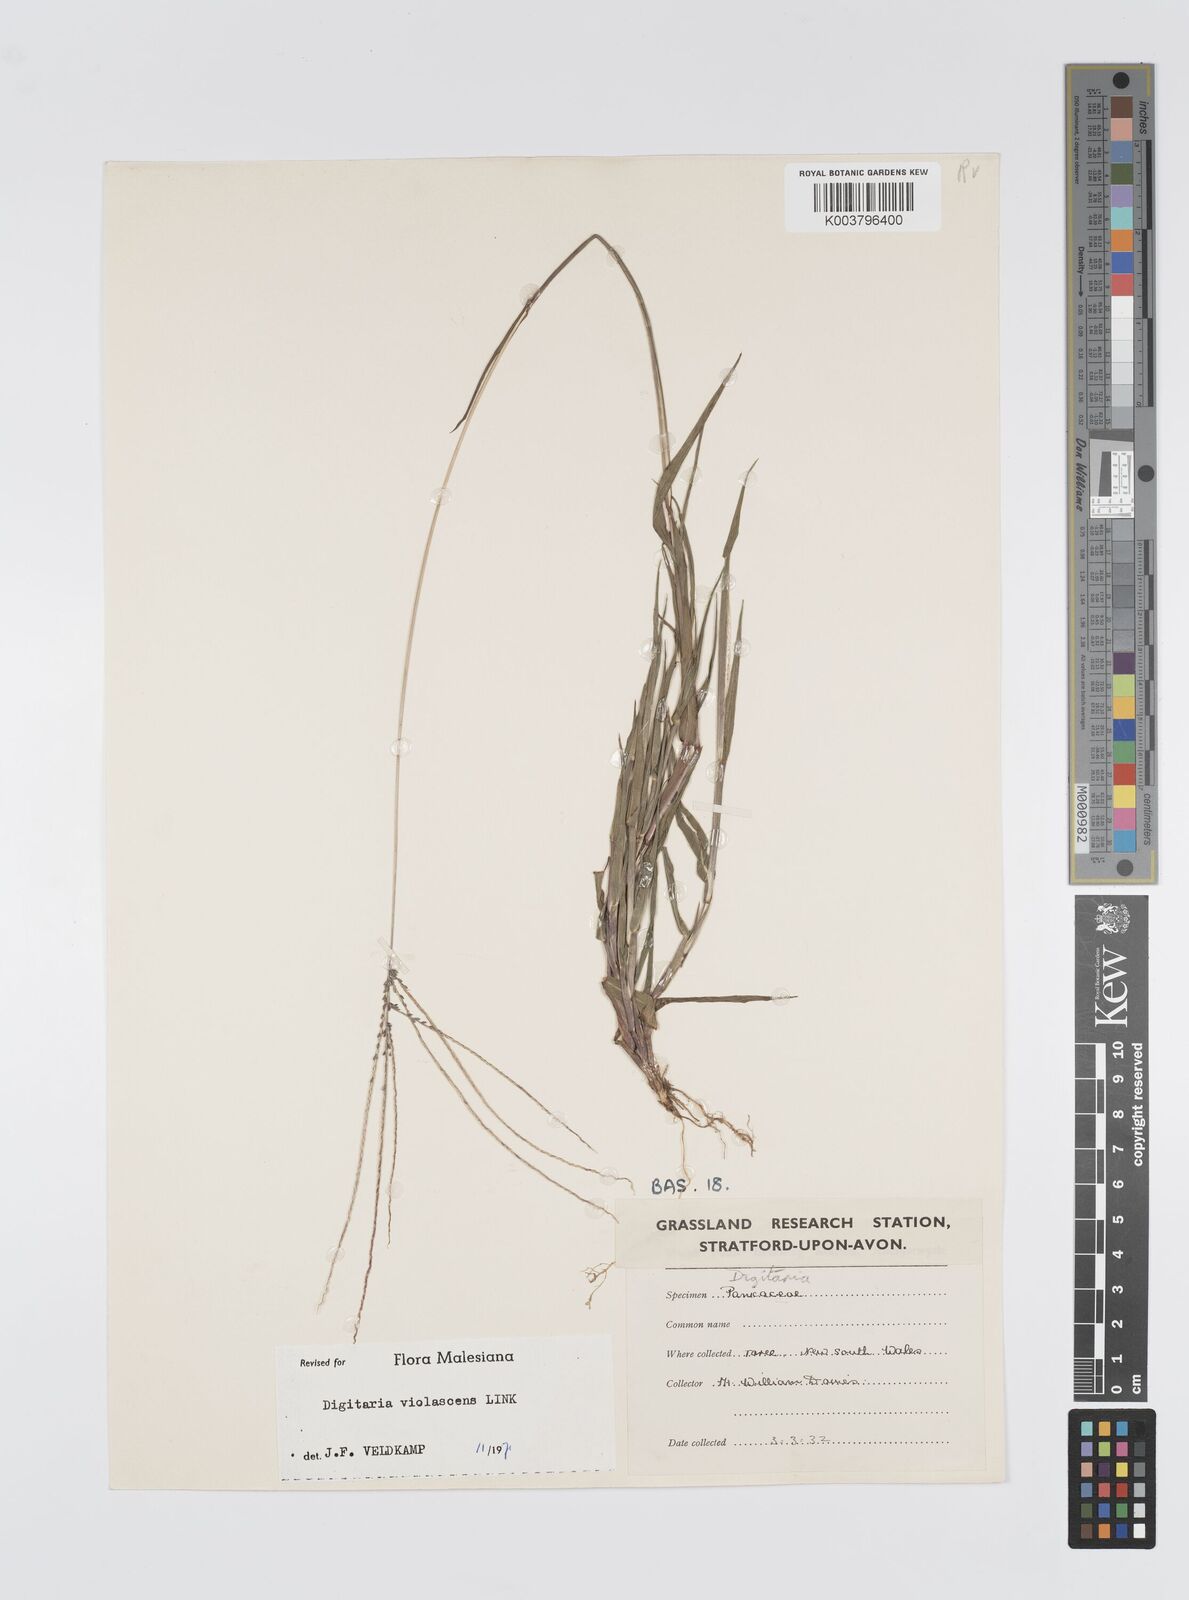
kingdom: Plantae
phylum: Tracheophyta
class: Liliopsida
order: Poales
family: Poaceae
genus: Digitaria
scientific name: Digitaria violascens
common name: Violet crabgrass
